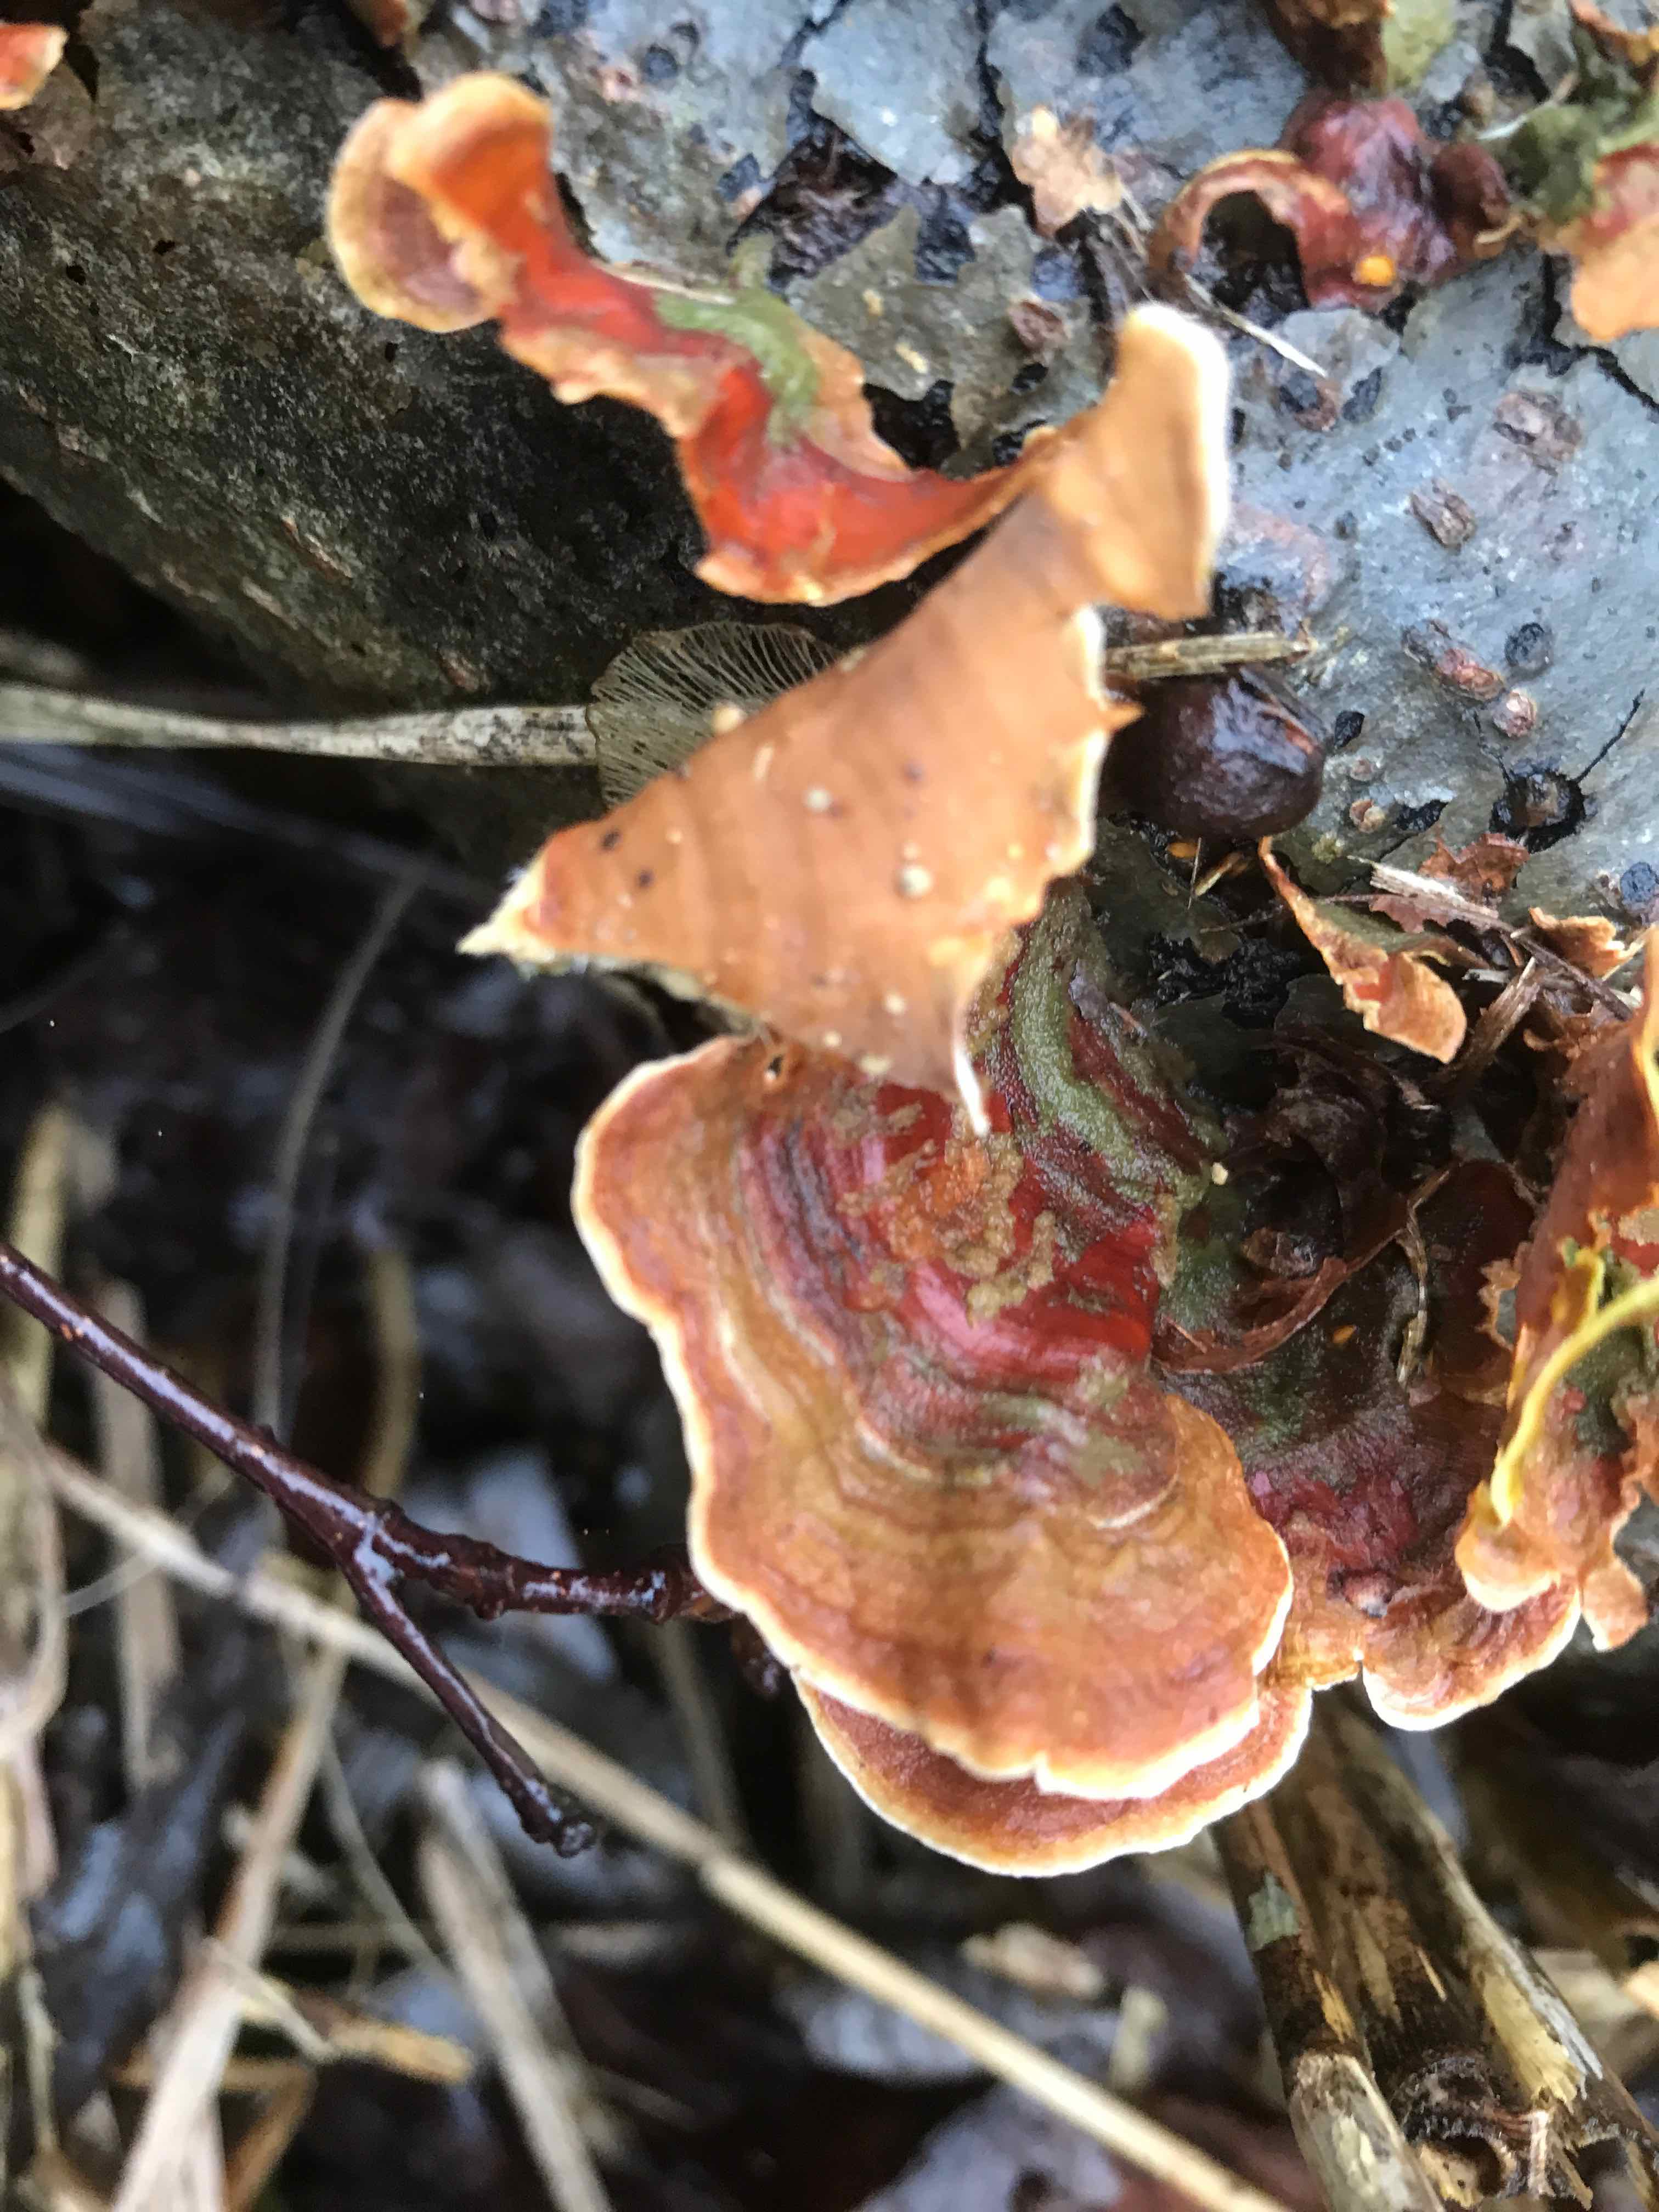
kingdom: Fungi
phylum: Basidiomycota
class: Agaricomycetes
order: Russulales
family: Stereaceae
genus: Stereum
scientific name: Stereum subtomentosum
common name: smuk lædersvamp
